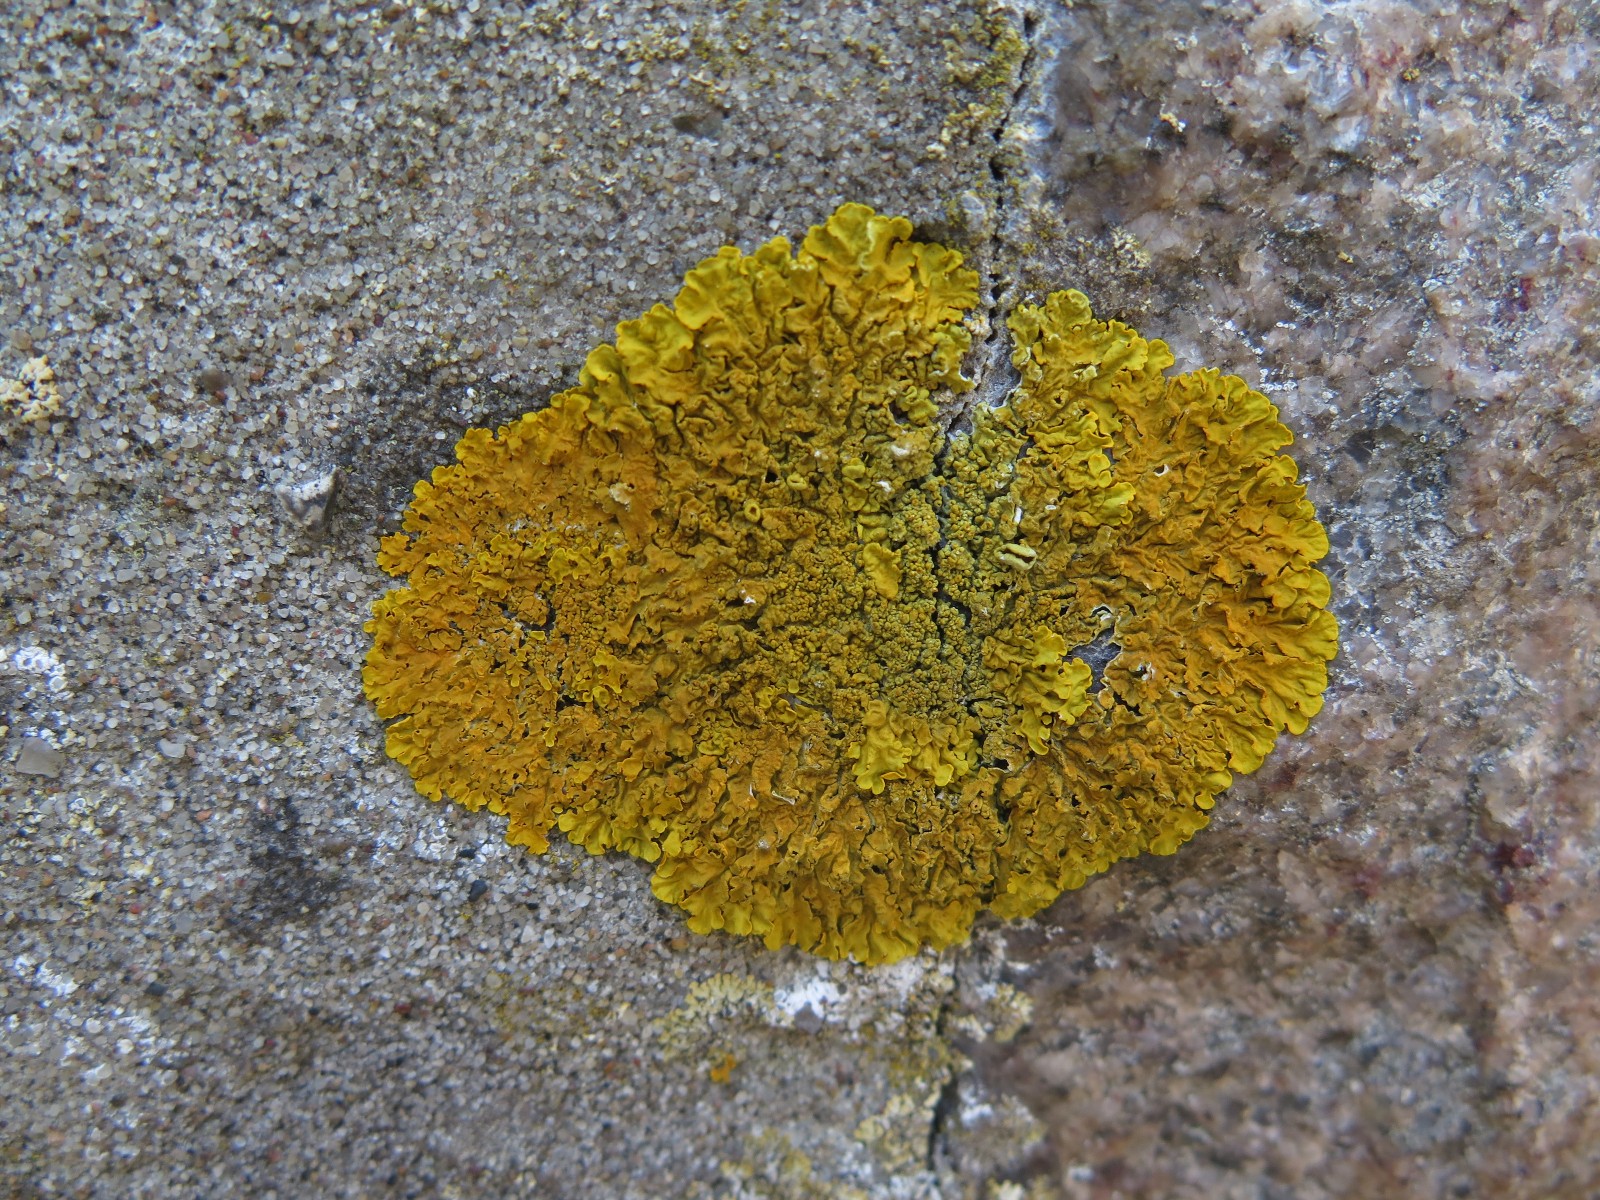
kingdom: Fungi
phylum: Ascomycota
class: Lecanoromycetes
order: Teloschistales
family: Teloschistaceae
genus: Xanthoria
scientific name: Xanthoria parietina
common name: almindelig væggelav
